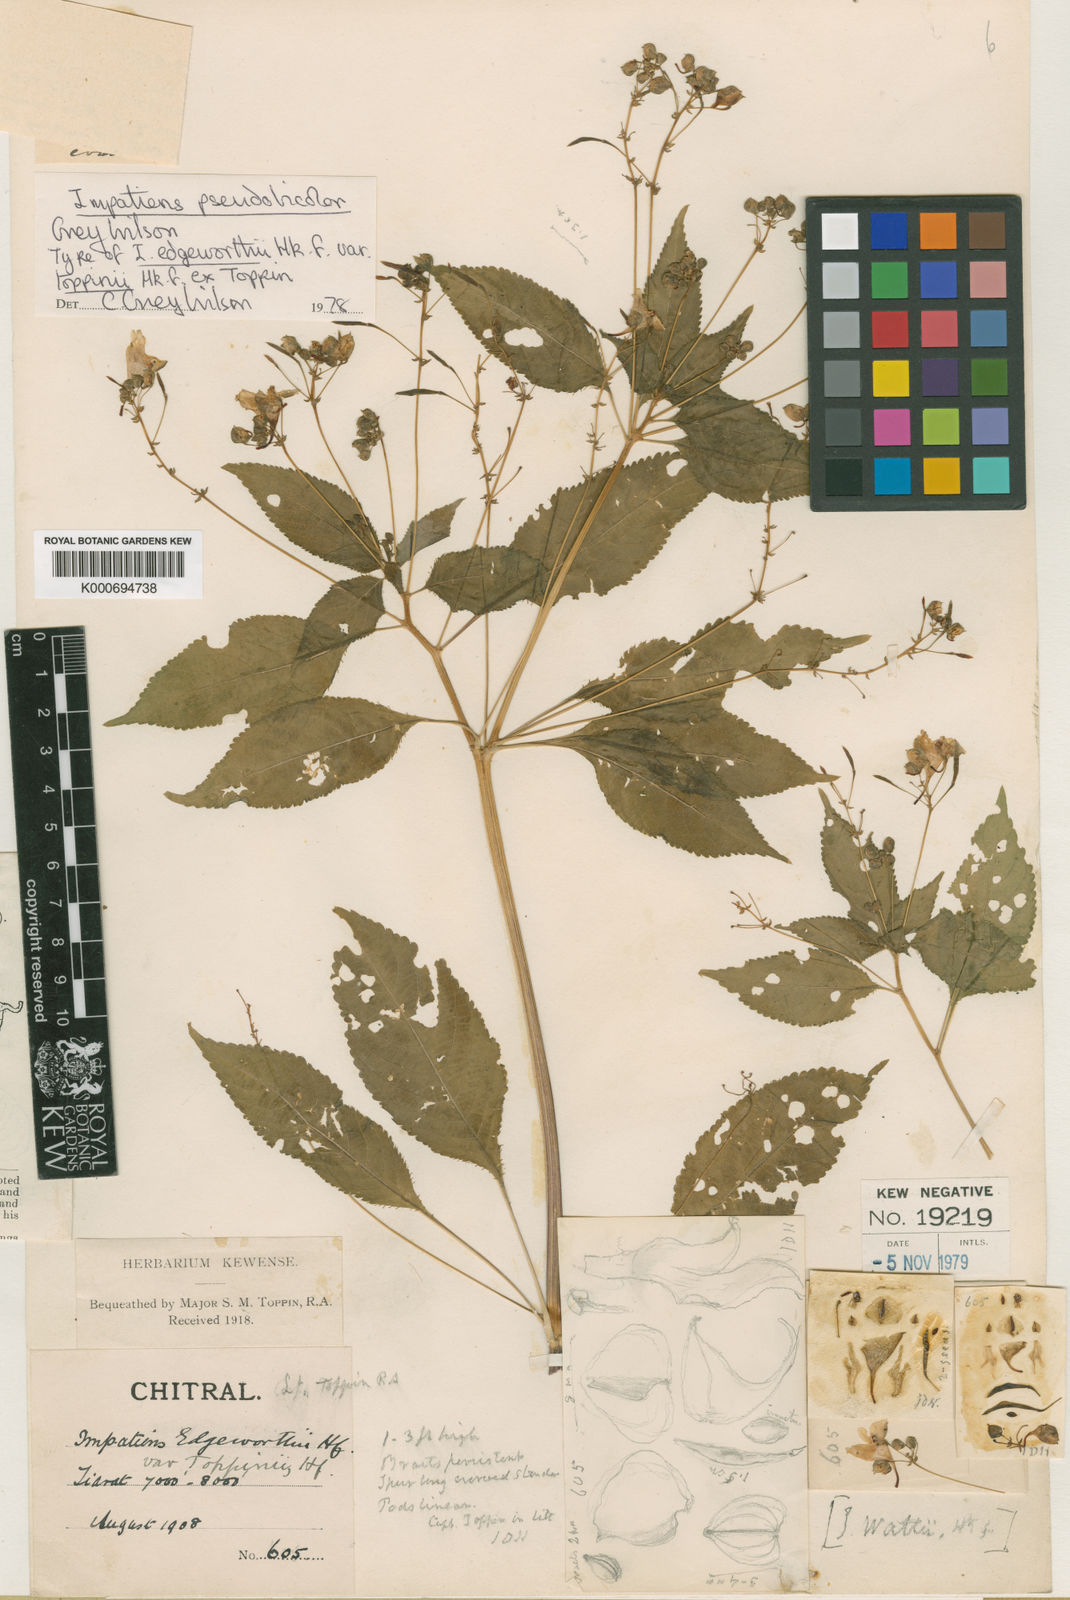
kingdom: Plantae
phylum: Tracheophyta
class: Magnoliopsida
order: Ericales
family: Balsaminaceae
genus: Impatiens
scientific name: Impatiens edgeworthii
